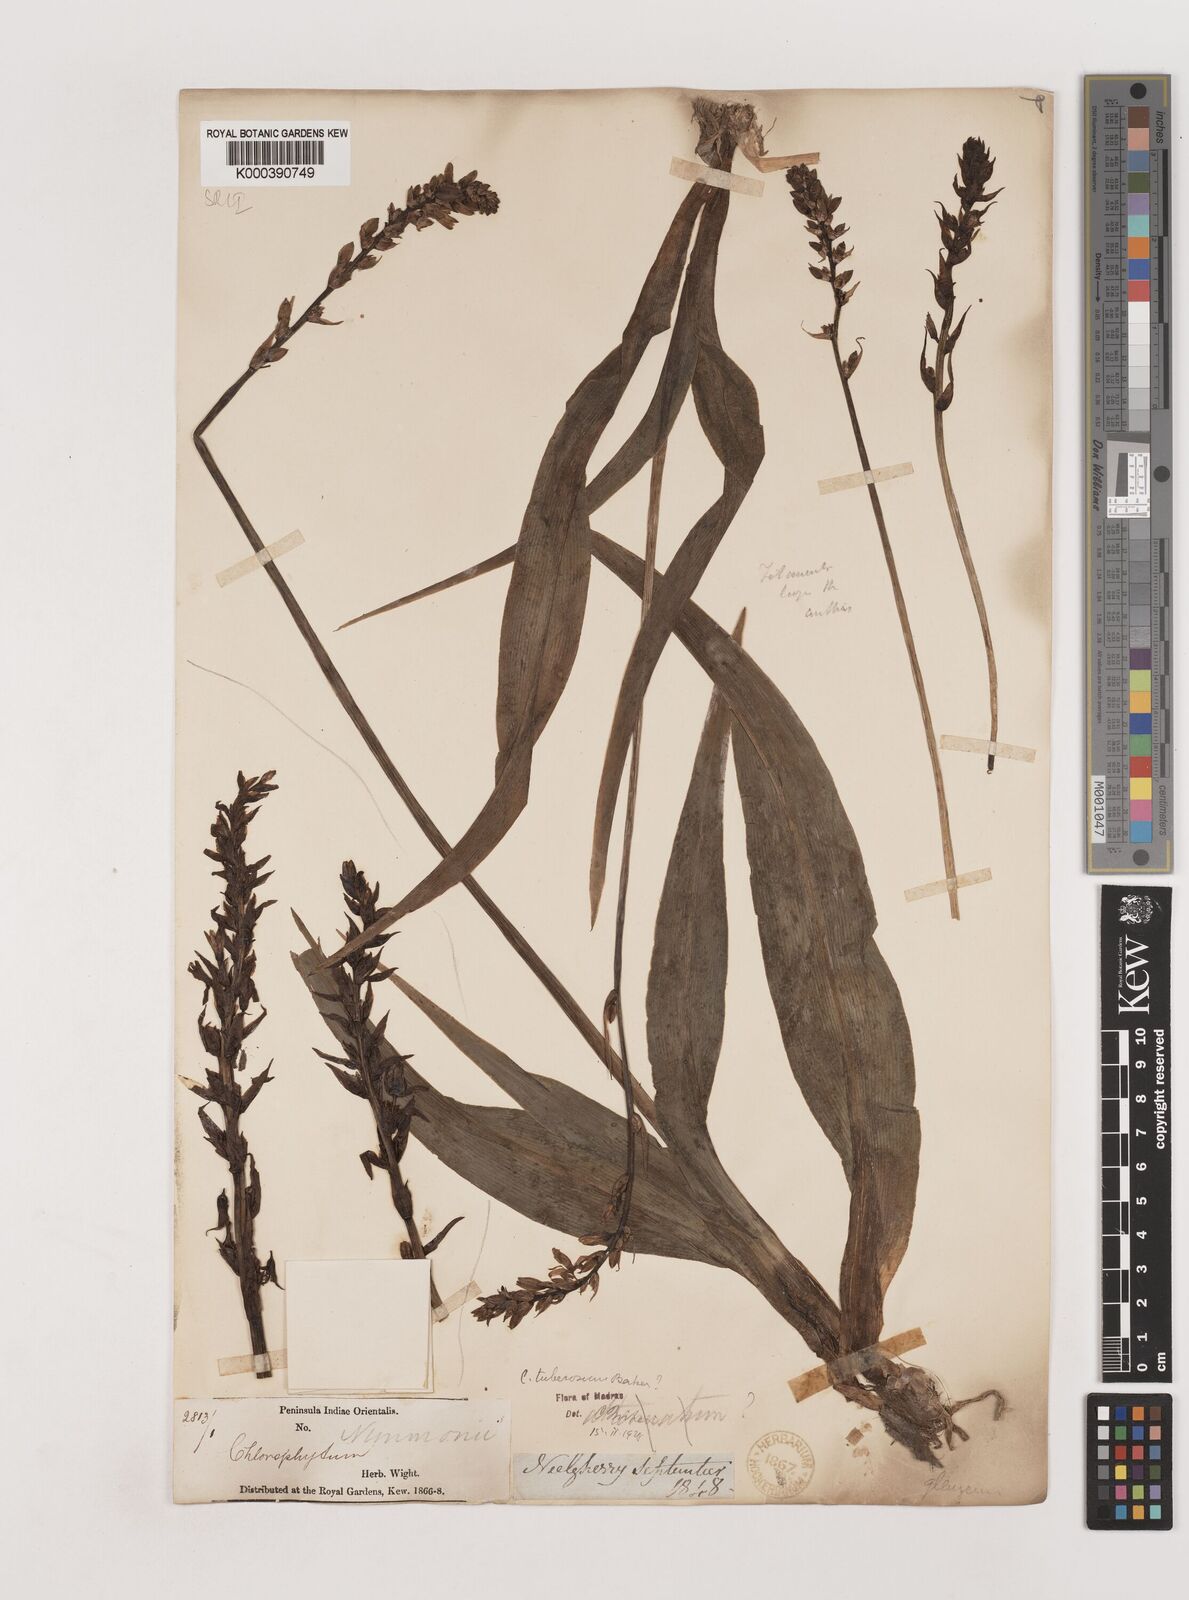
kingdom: Plantae
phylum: Tracheophyta
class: Liliopsida
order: Asparagales
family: Asparagaceae
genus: Chlorophytum
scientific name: Chlorophytum tuberosum
